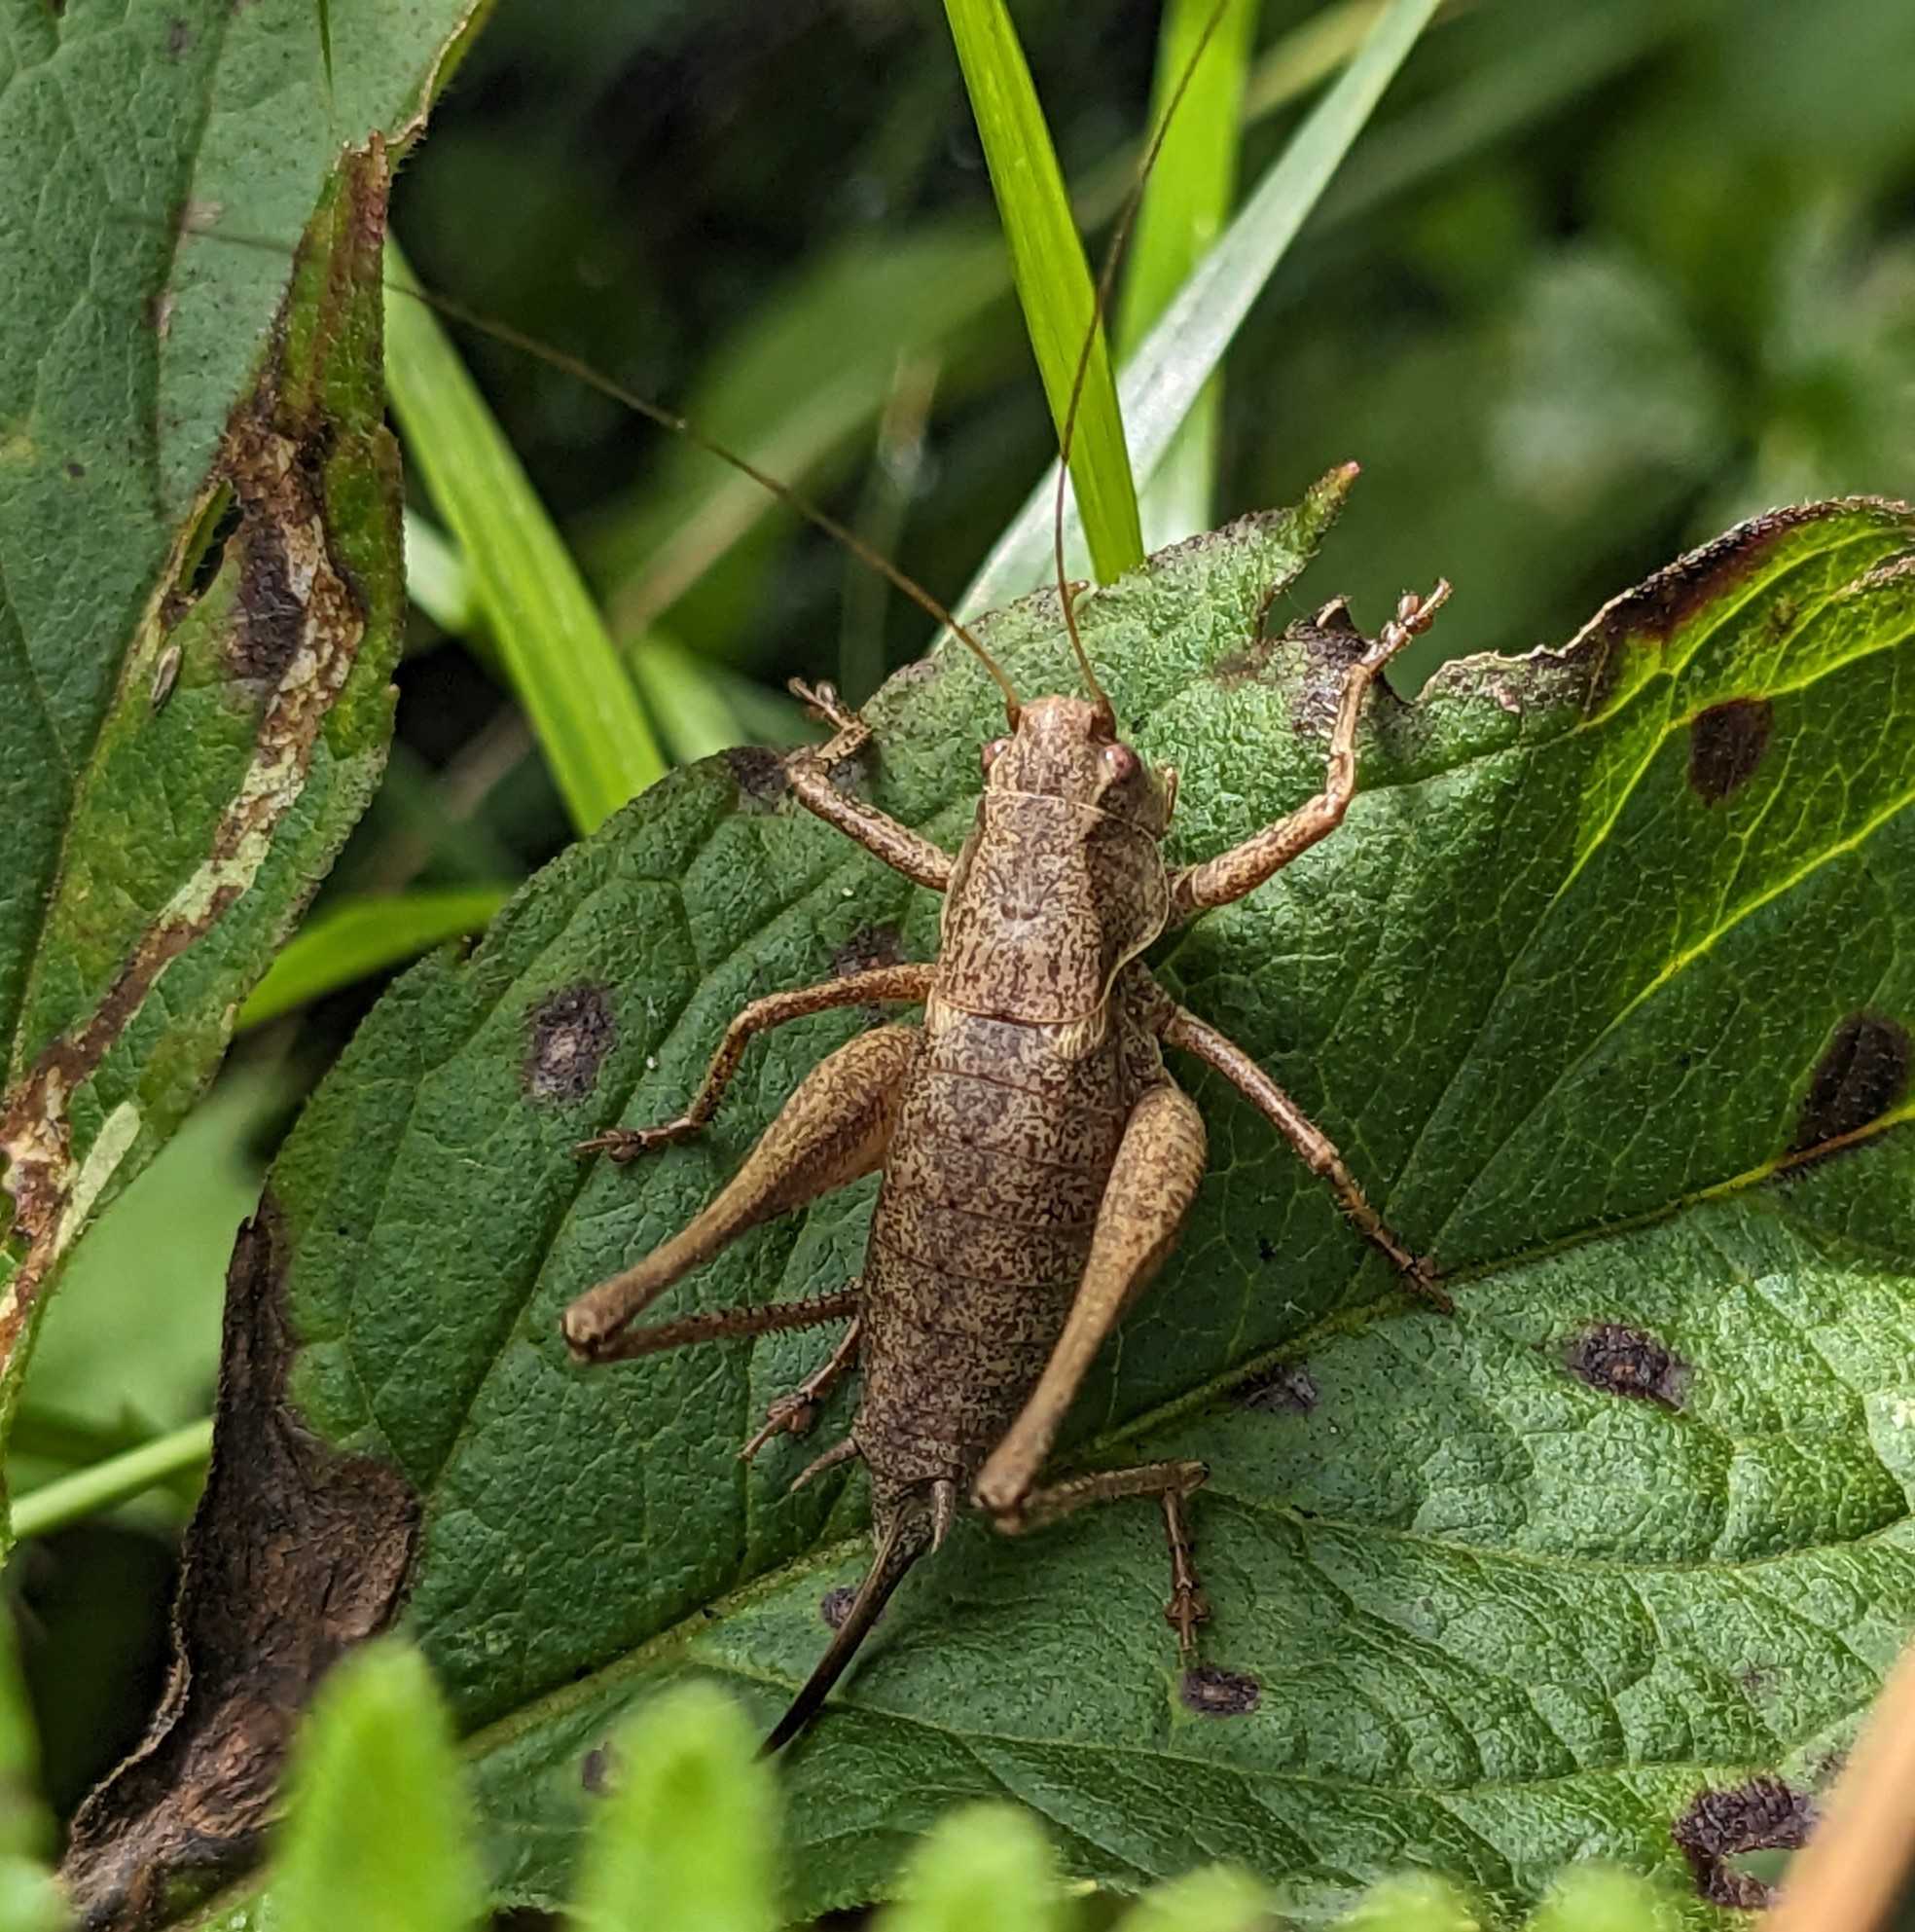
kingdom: Animalia
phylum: Arthropoda
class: Insecta
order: Orthoptera
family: Tettigoniidae
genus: Pholidoptera
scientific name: Pholidoptera griseoaptera
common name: Buskgræshoppe
